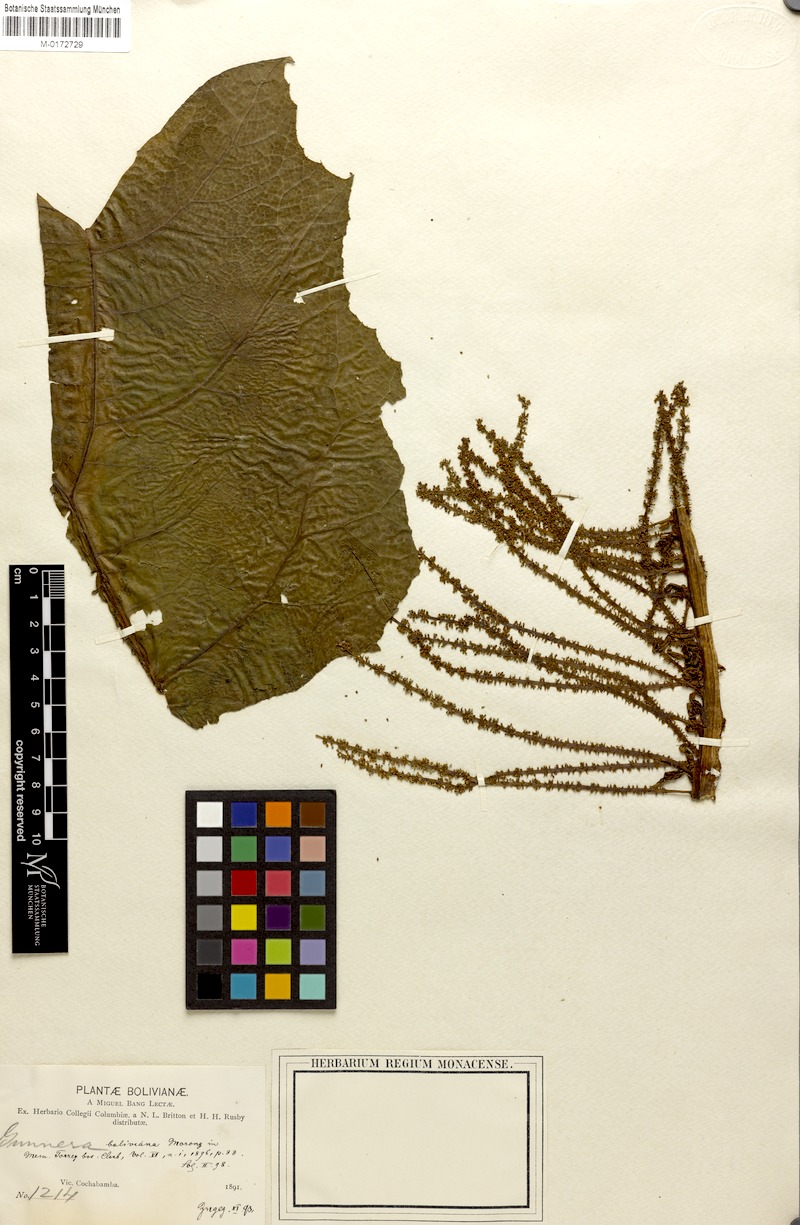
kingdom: Plantae
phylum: Tracheophyta
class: Magnoliopsida
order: Gunnerales
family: Gunneraceae
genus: Gunnera
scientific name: Gunnera boliviana
